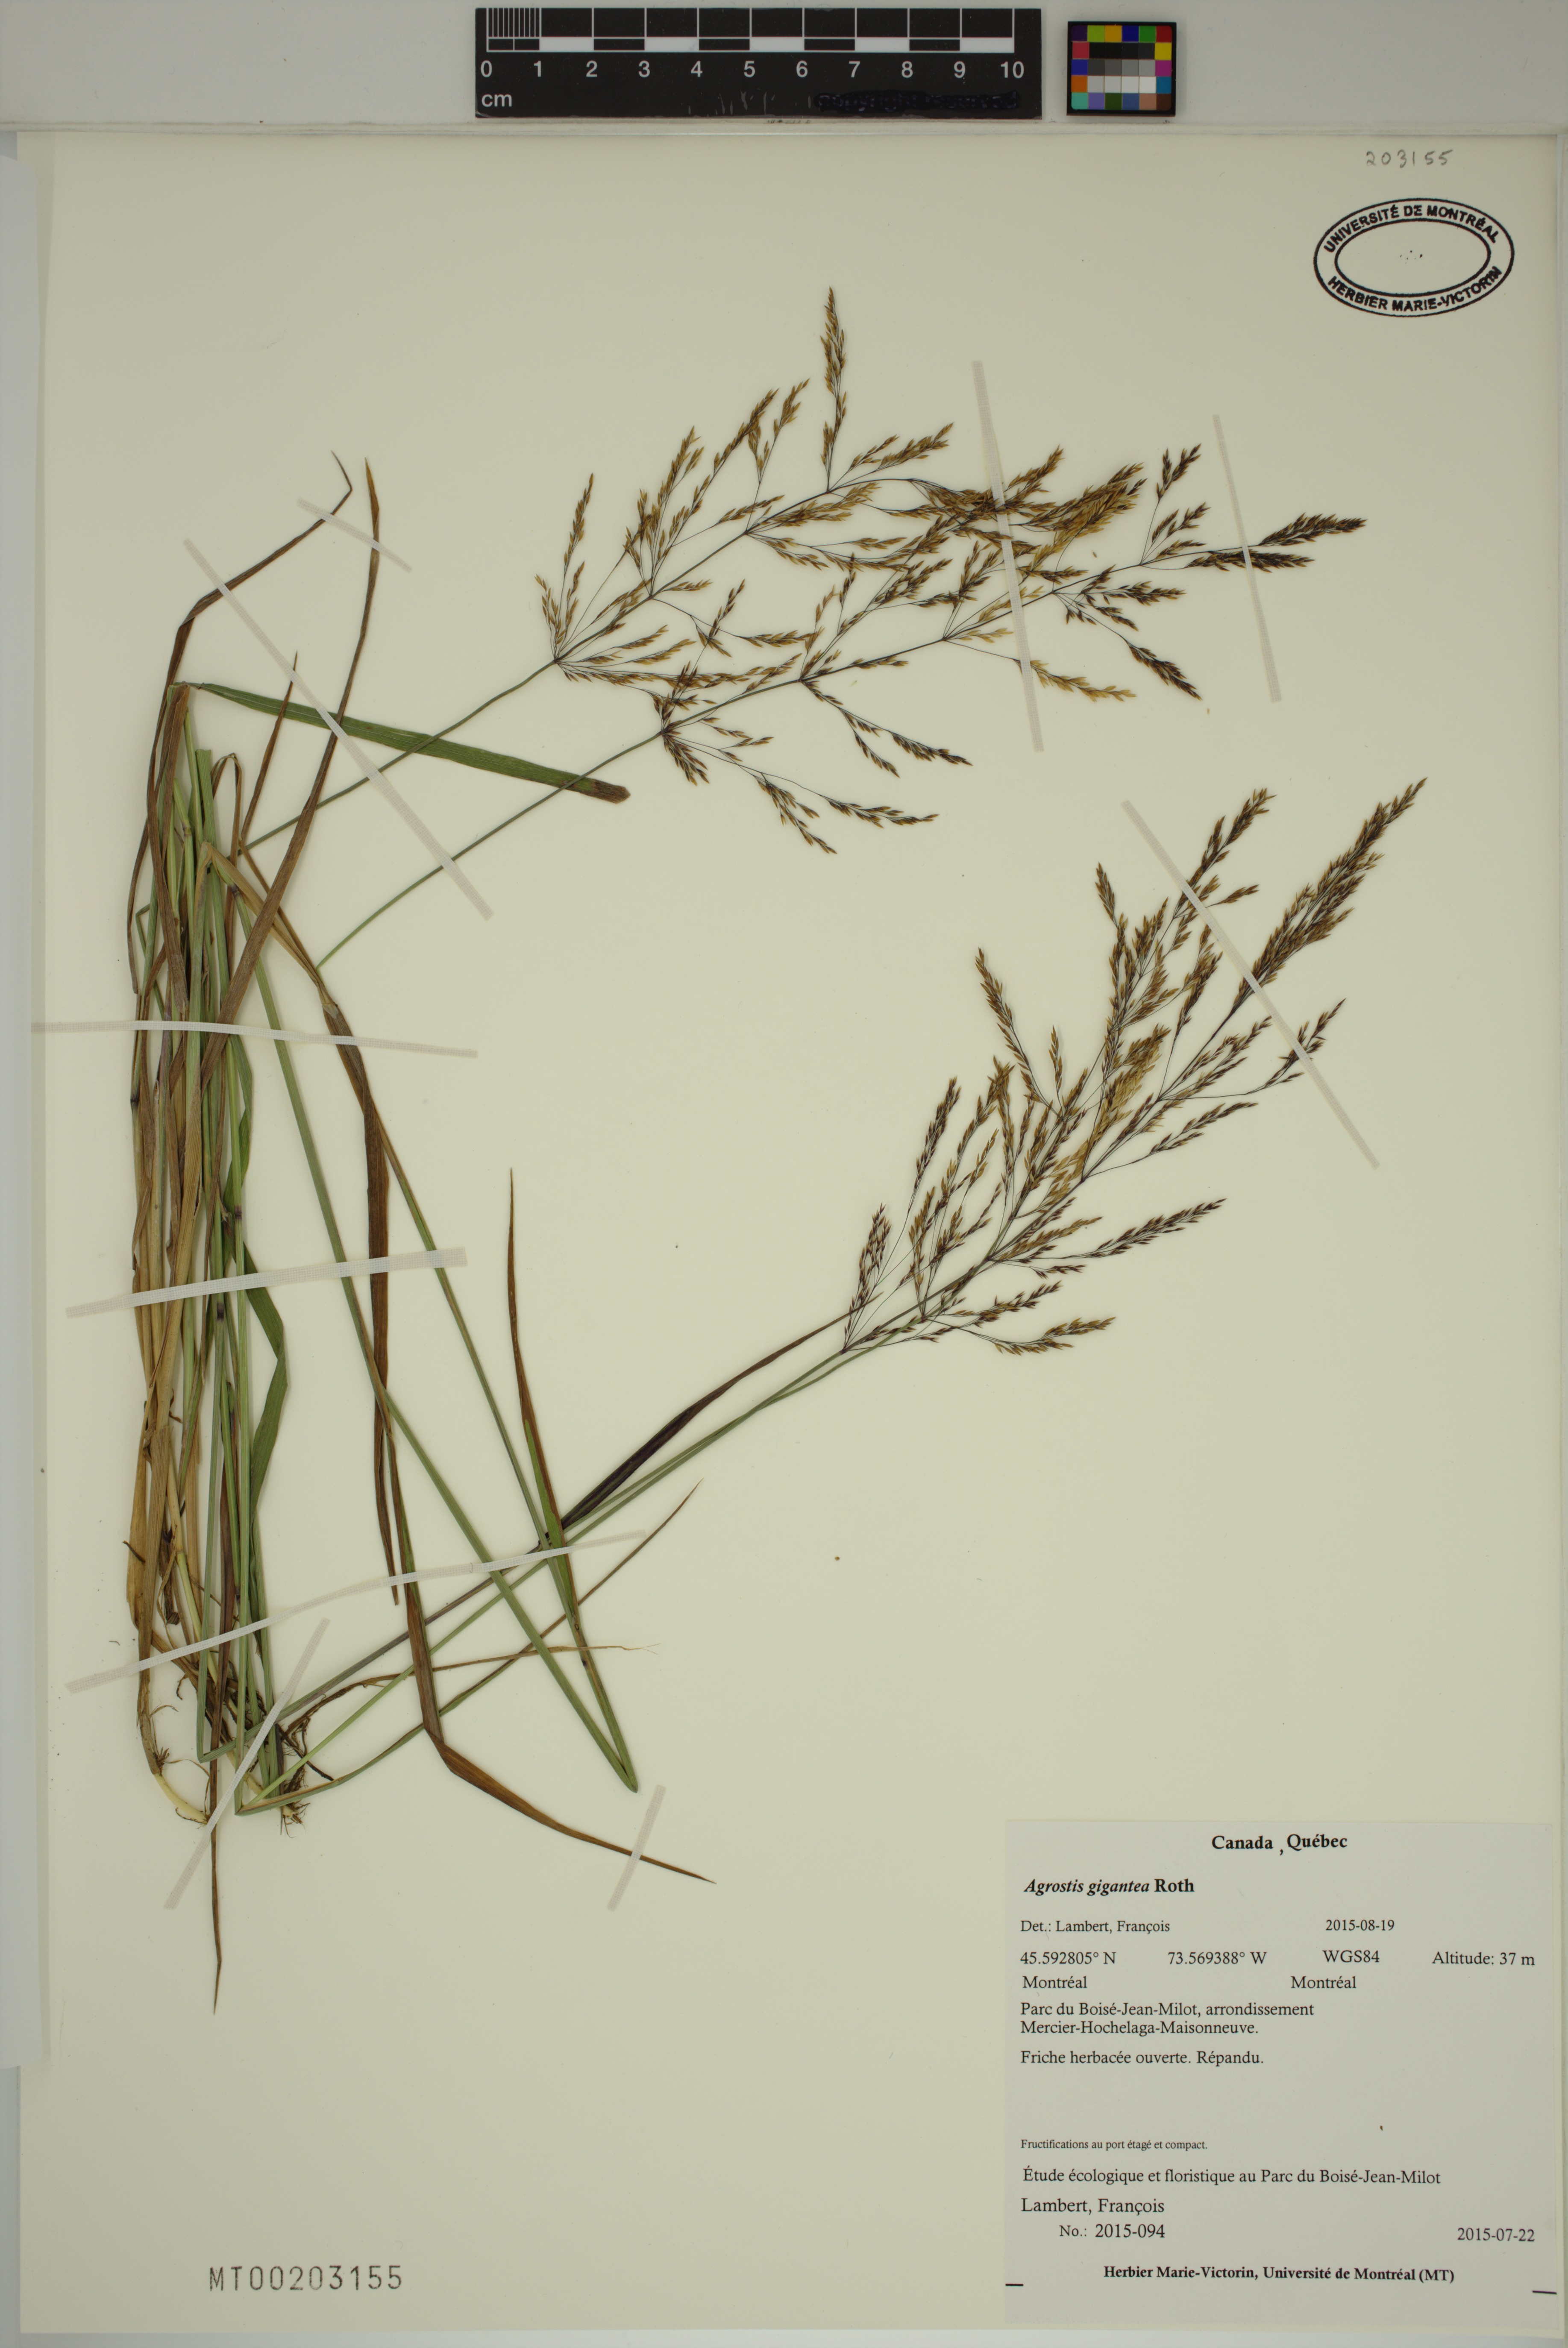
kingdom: Plantae
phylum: Tracheophyta
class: Liliopsida
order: Poales
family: Poaceae
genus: Agrostis
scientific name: Agrostis gigantea
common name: Black bent
